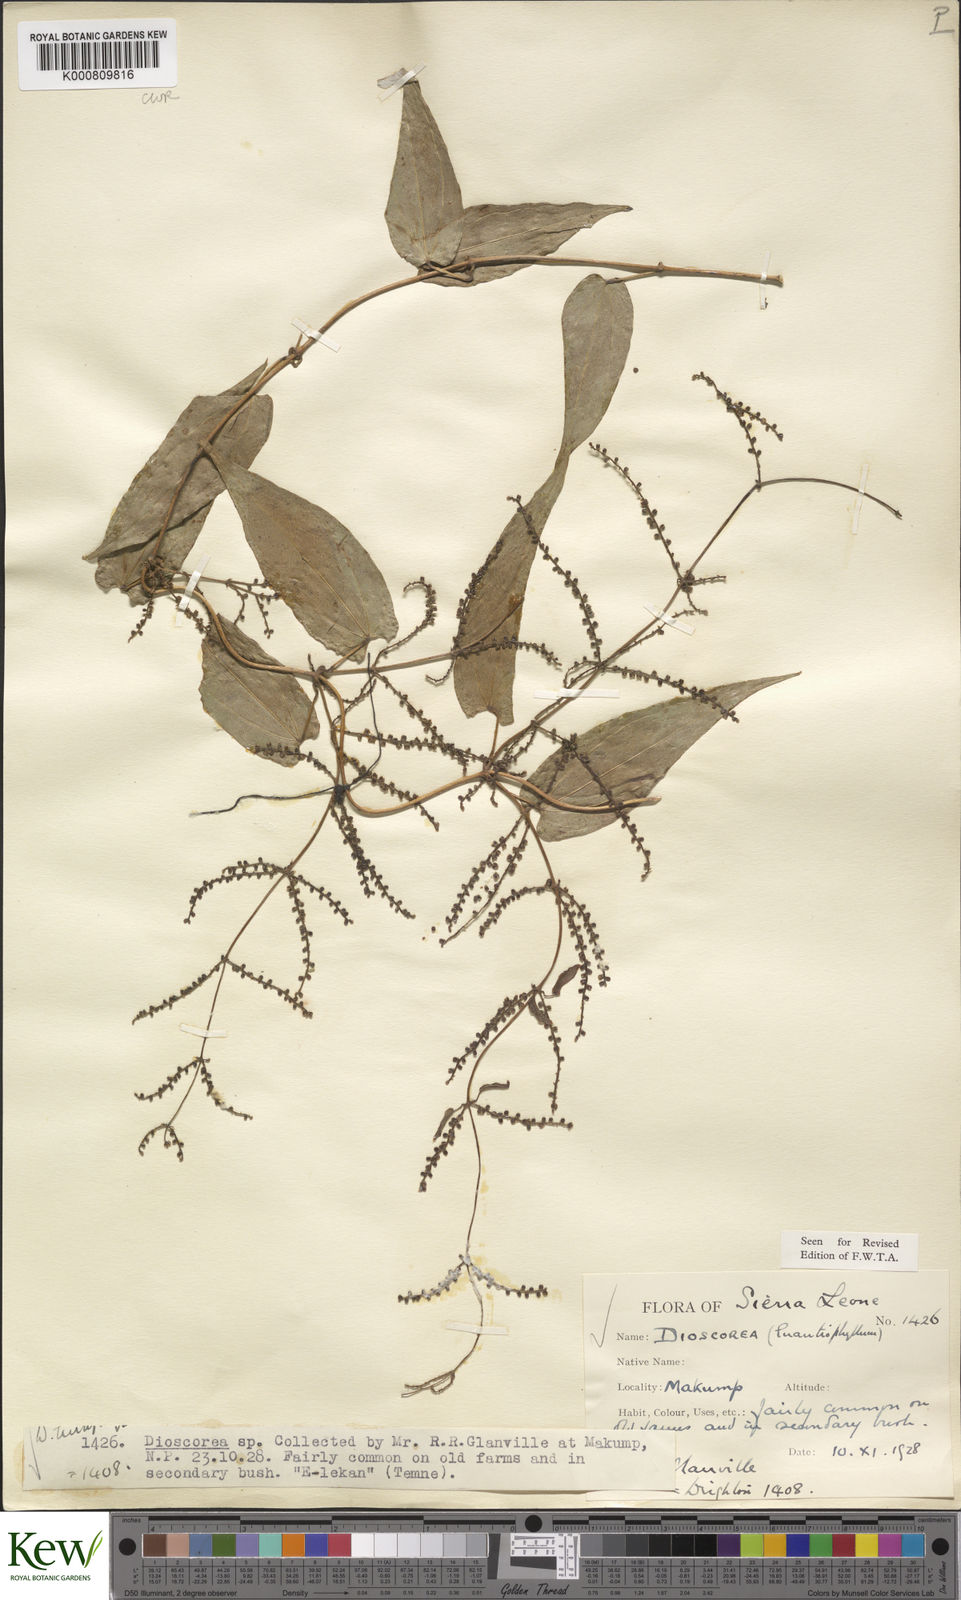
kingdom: Plantae
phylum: Tracheophyta
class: Liliopsida
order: Dioscoreales
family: Dioscoreaceae
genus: Dioscorea
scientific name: Dioscorea togoensis
